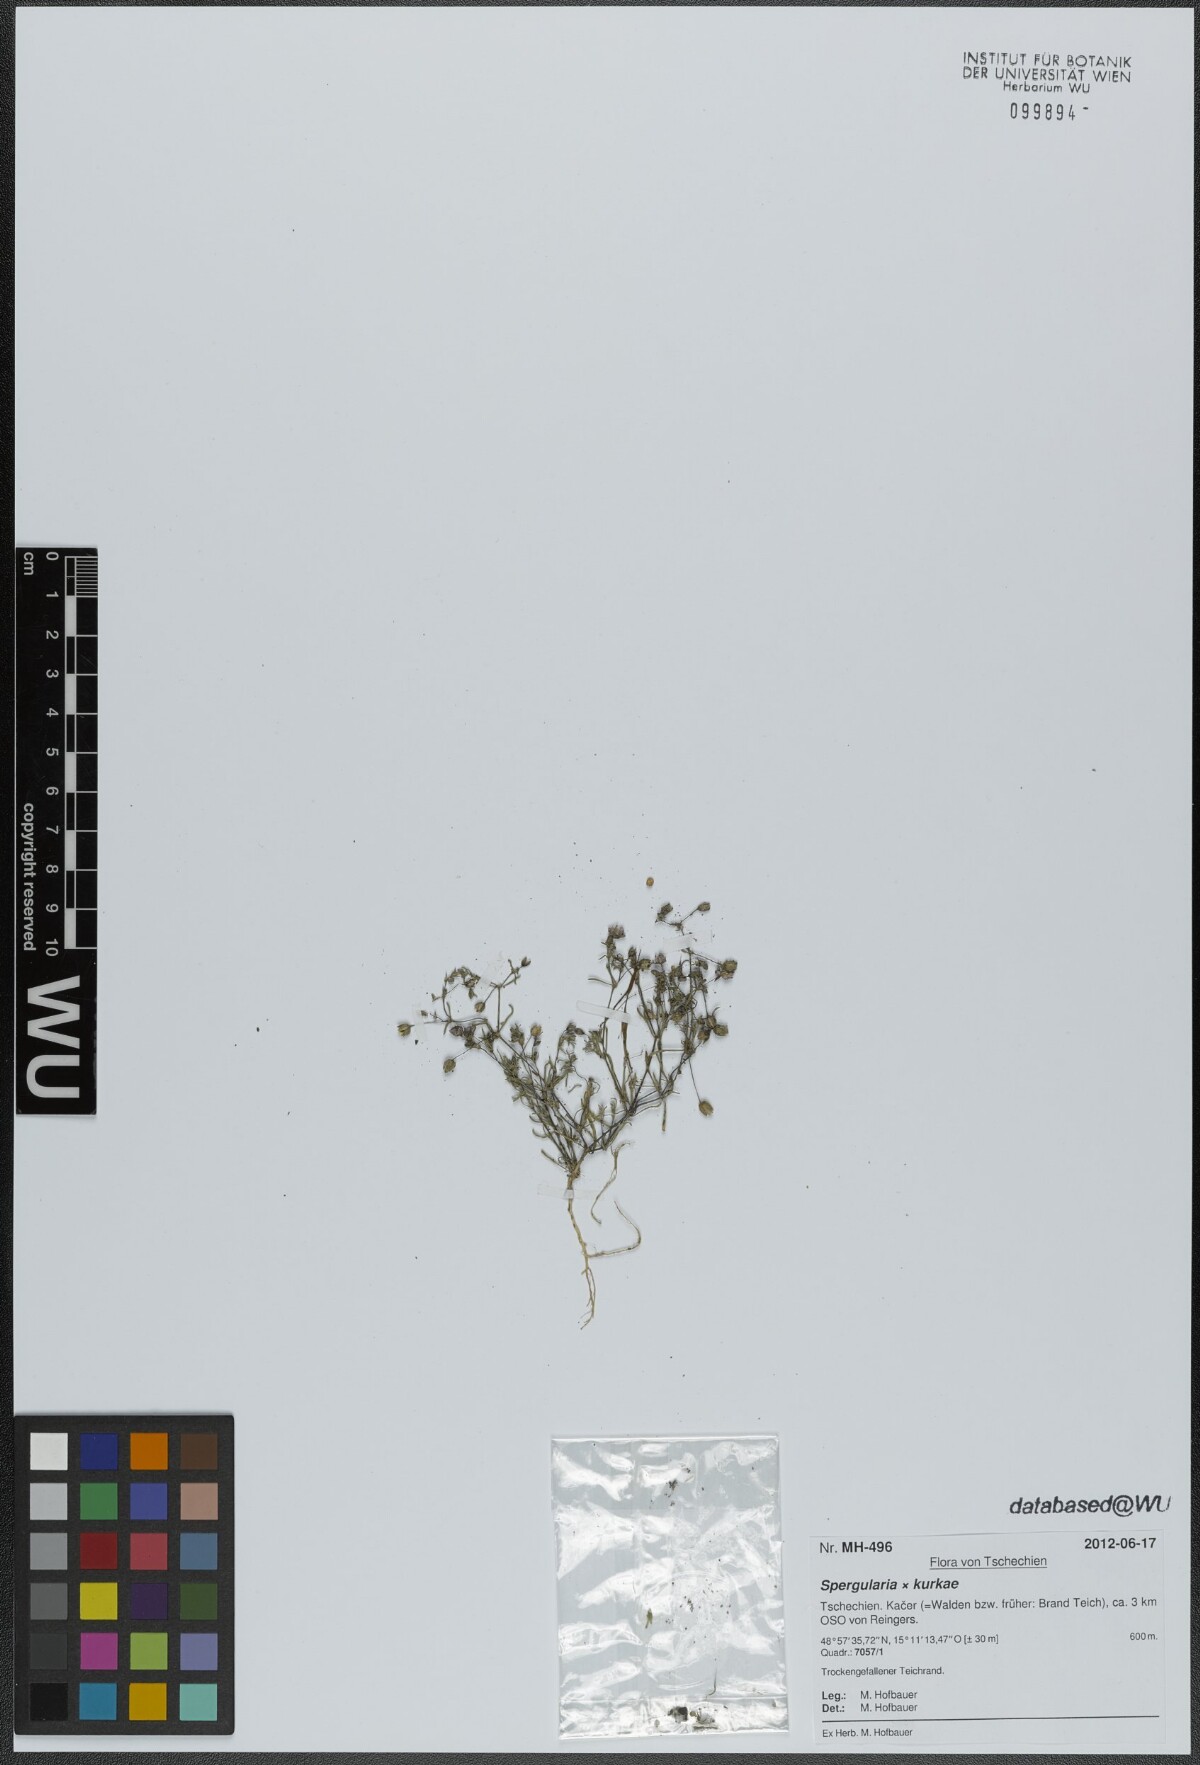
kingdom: Plantae
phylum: Tracheophyta
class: Magnoliopsida
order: Caryophyllales
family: Caryophyllaceae
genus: Spergularia
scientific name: Spergularia kurkae
